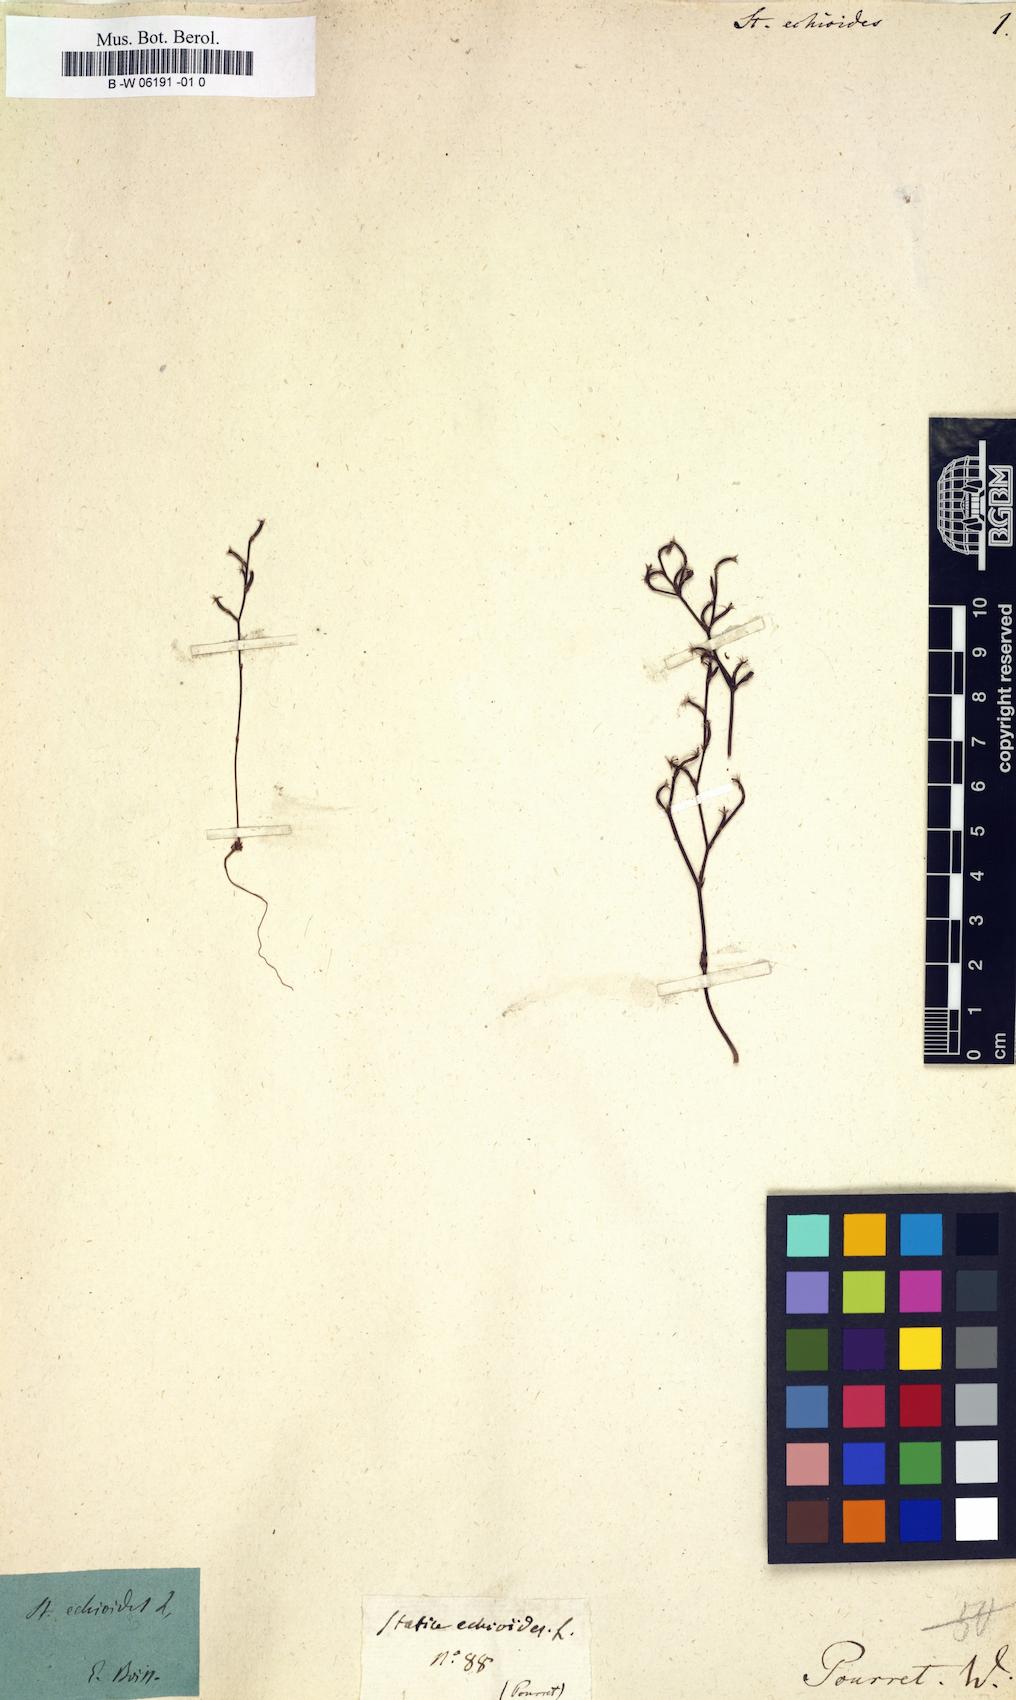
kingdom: Plantae
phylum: Tracheophyta
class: Magnoliopsida
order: Caryophyllales
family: Plumbaginaceae
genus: Limonium
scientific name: Limonium
